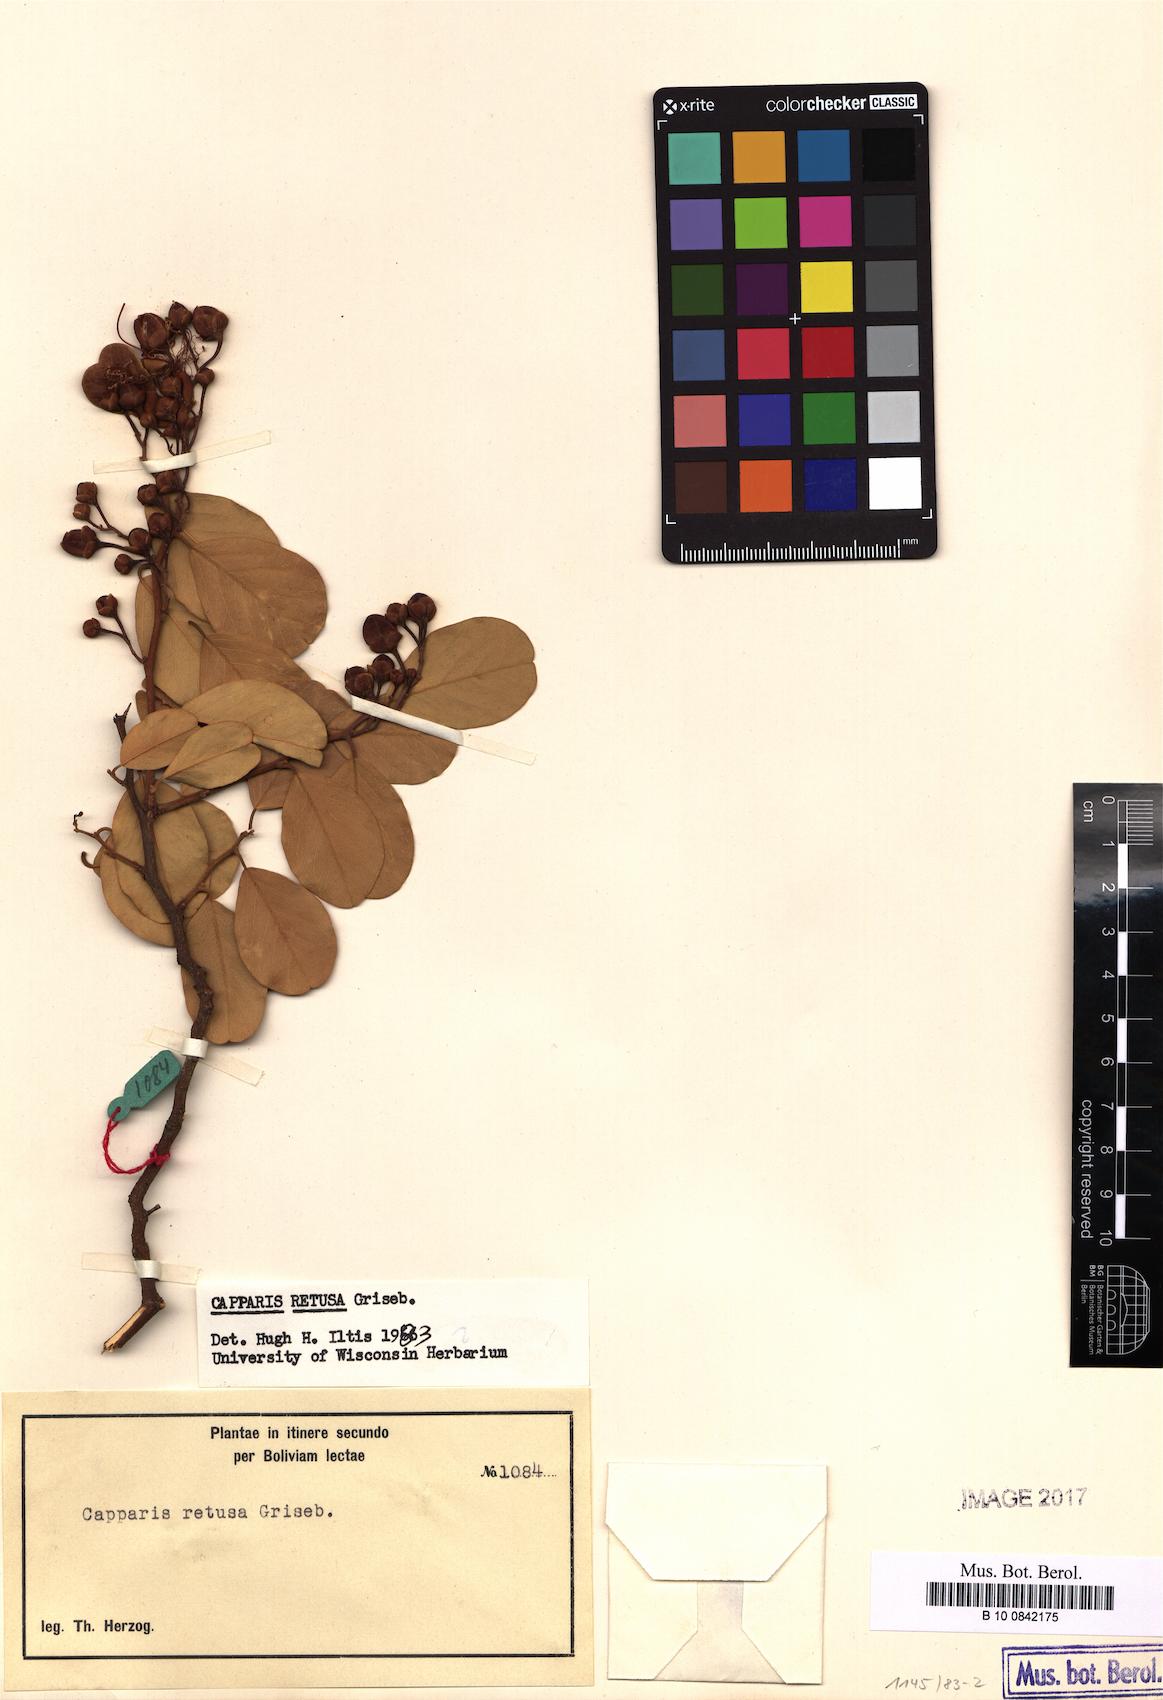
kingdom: Plantae
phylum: Tracheophyta
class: Magnoliopsida
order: Brassicales
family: Capparaceae
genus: Cynophalla
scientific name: Cynophalla retusa
